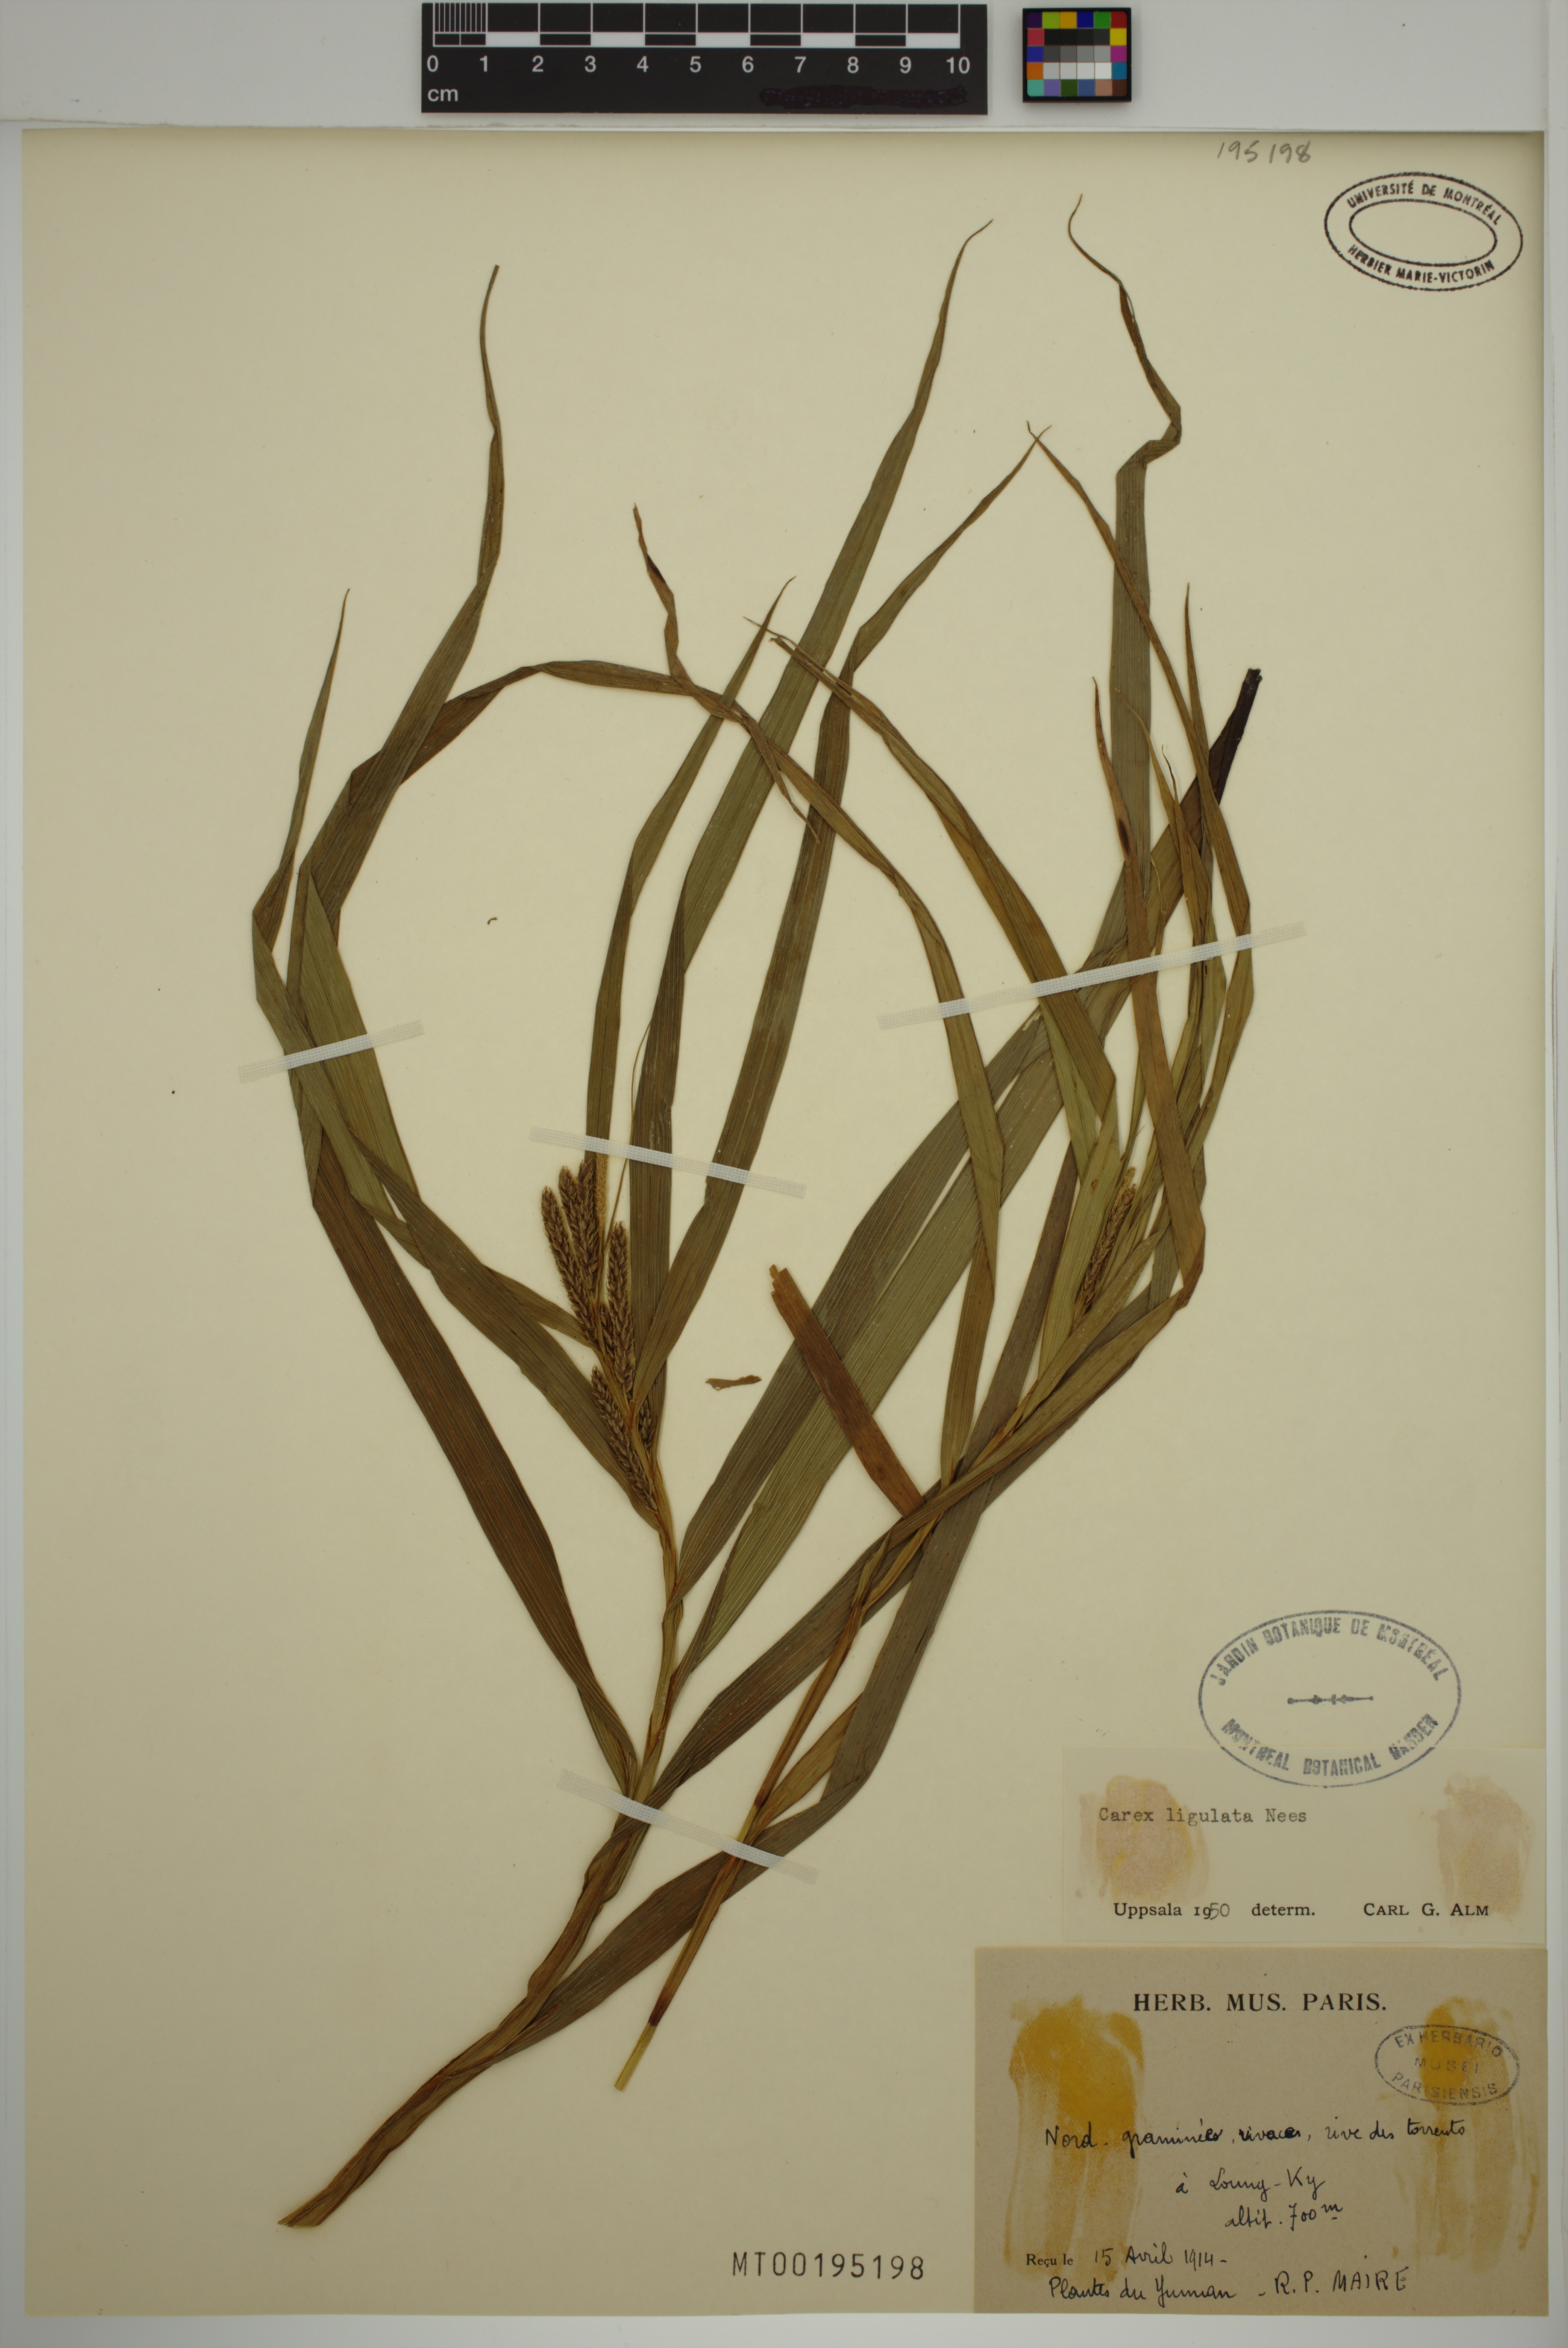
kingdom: Plantae
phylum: Tracheophyta
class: Liliopsida
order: Poales
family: Cyperaceae
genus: Carex
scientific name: Carex ligulata
